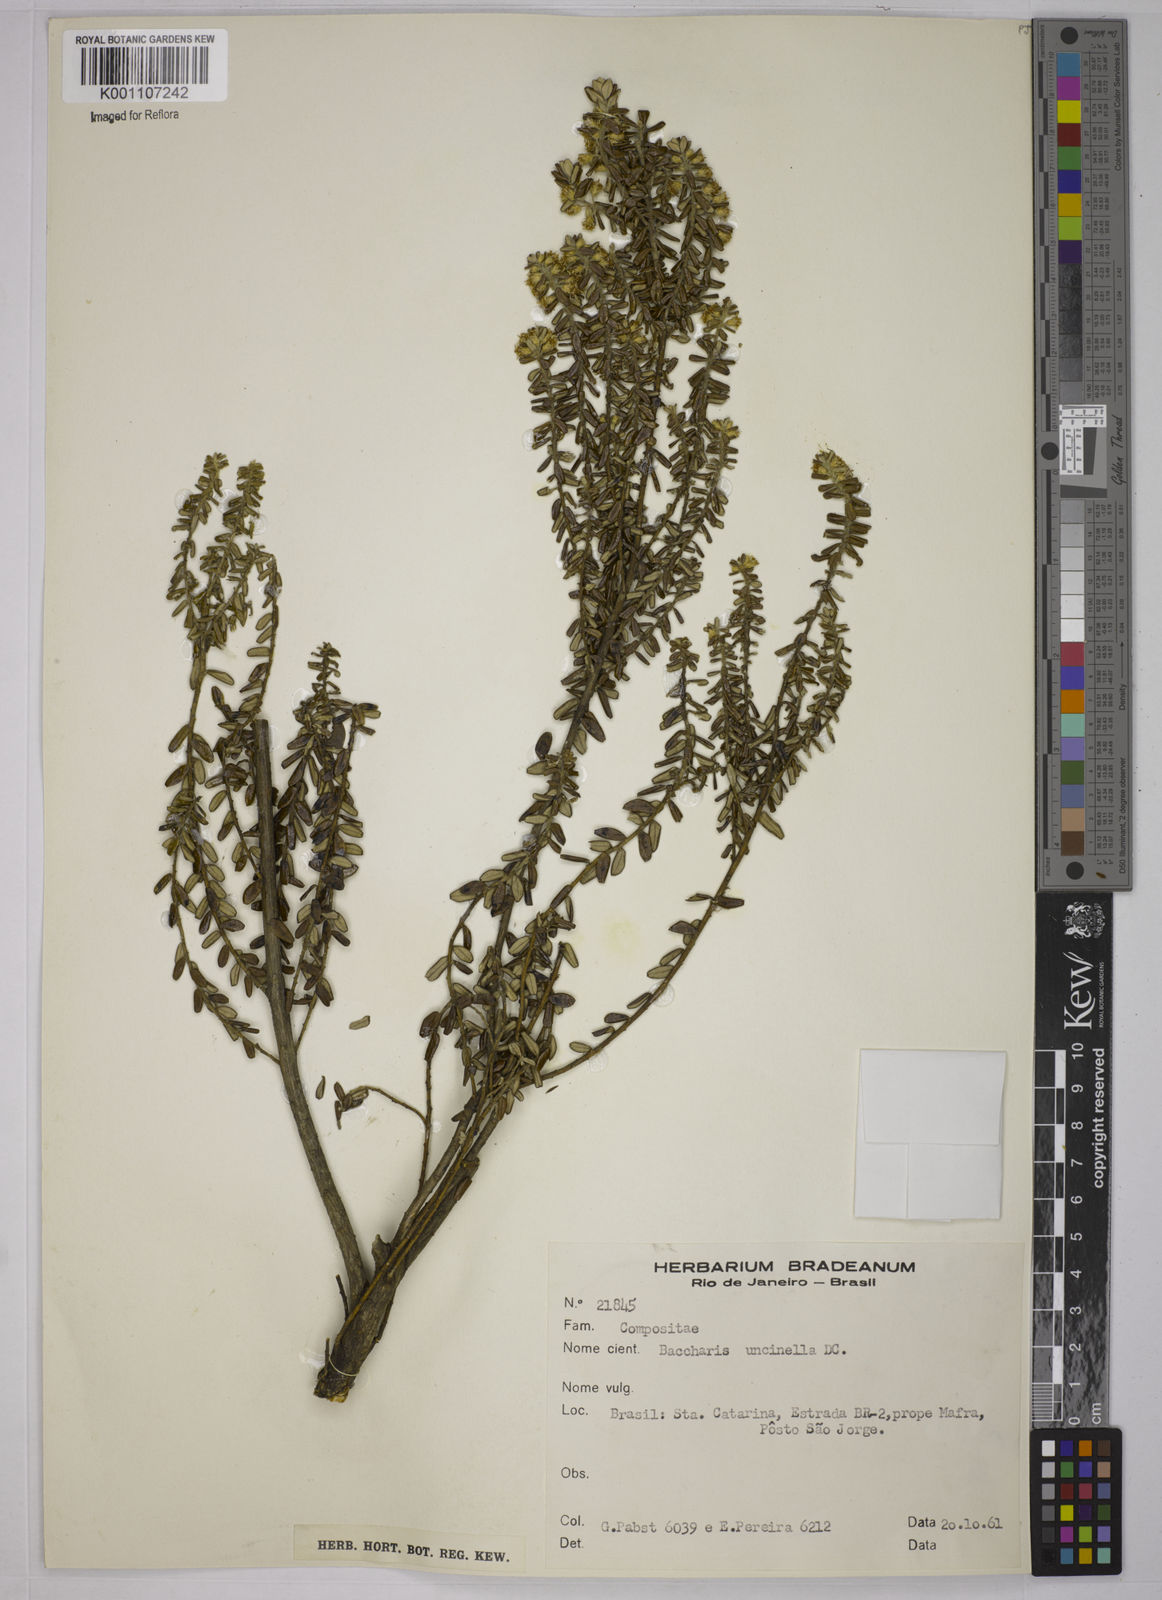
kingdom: Plantae
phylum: Tracheophyta
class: Magnoliopsida
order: Asterales
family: Asteraceae
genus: Baccharis
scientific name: Baccharis uncinella
